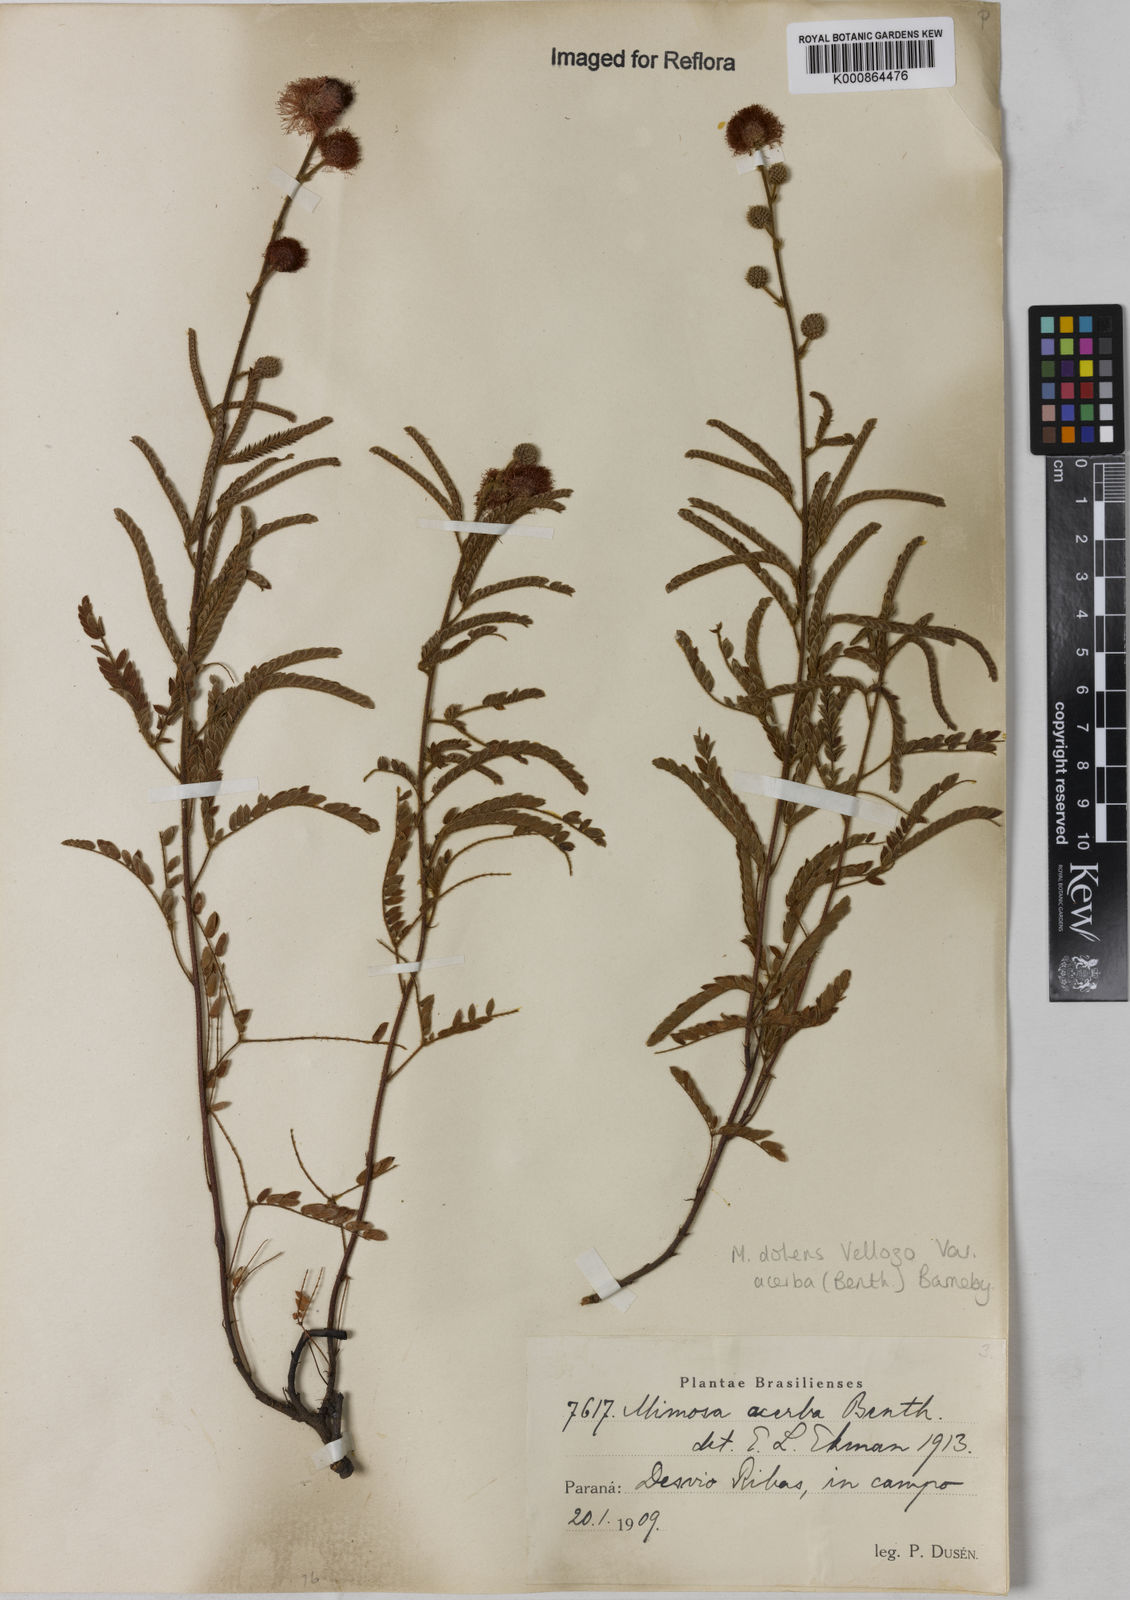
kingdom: Plantae
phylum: Tracheophyta
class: Magnoliopsida
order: Fabales
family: Fabaceae
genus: Mimosa
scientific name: Mimosa dolens
